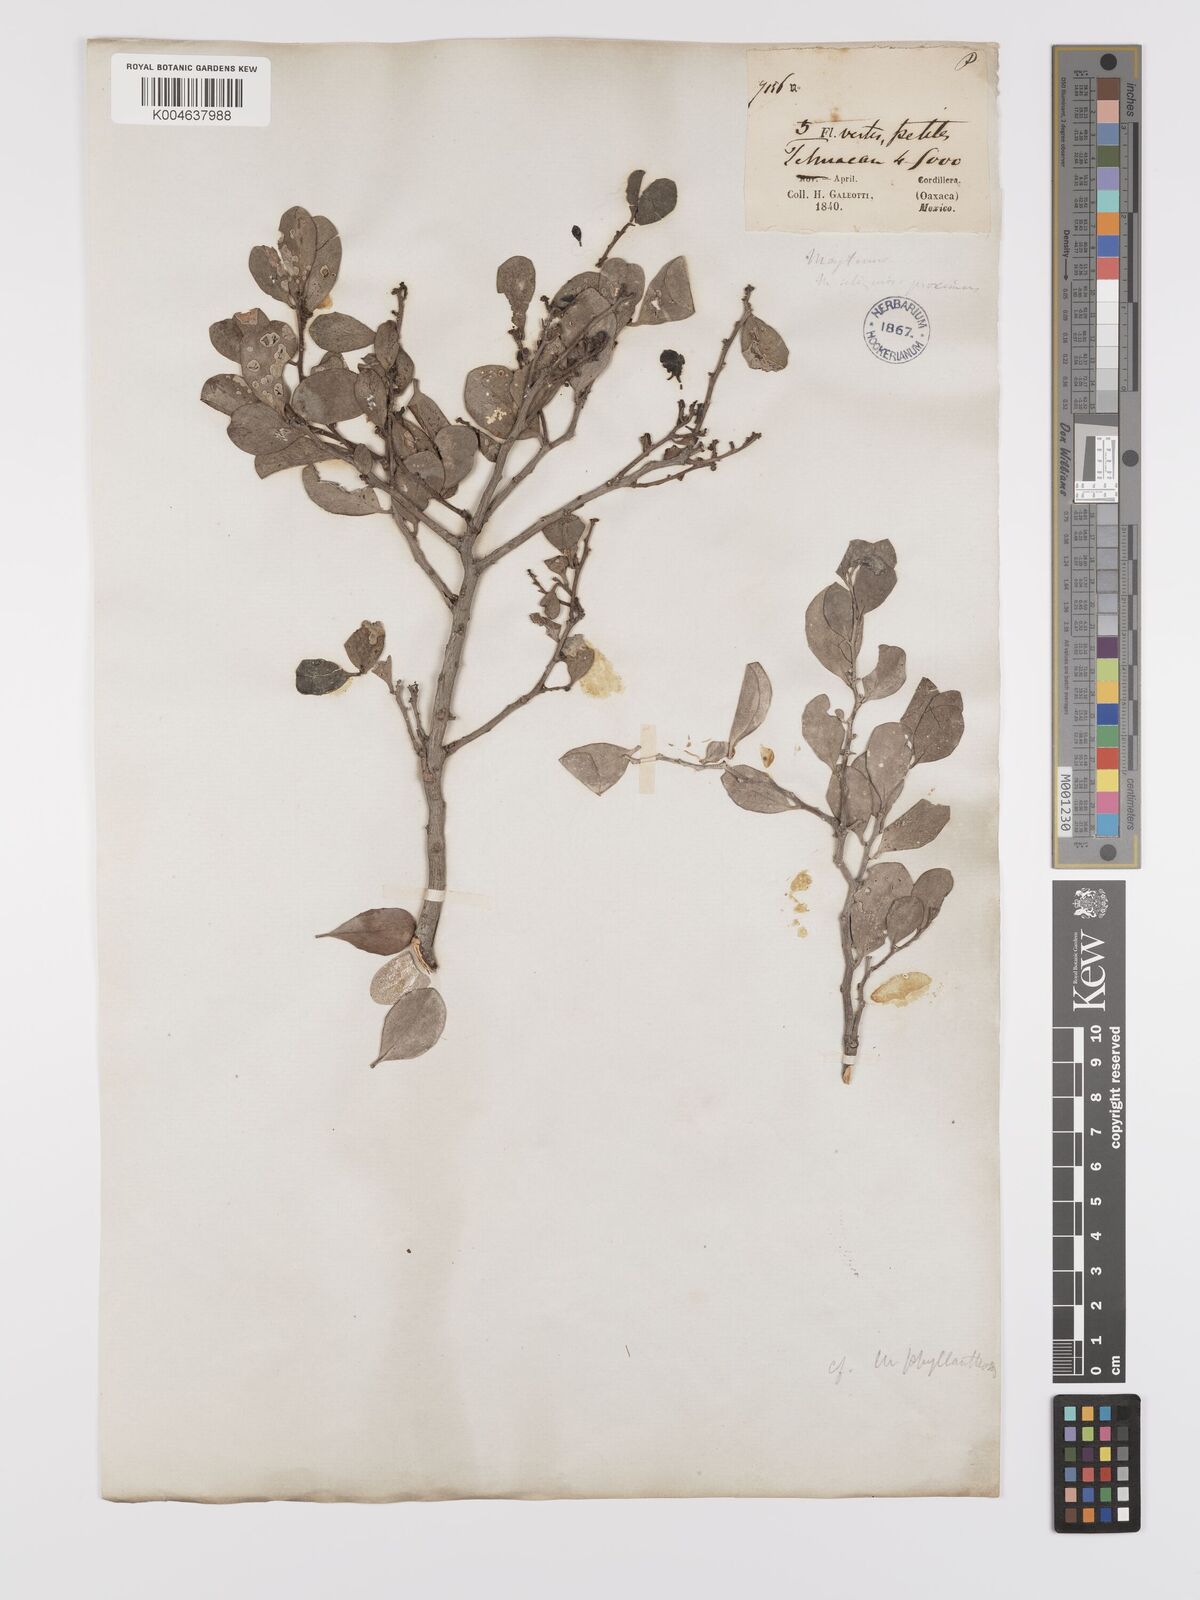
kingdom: Plantae
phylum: Tracheophyta
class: Magnoliopsida
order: Celastrales
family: Celastraceae
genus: Tricerma
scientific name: Tricerma phyllanthoides
